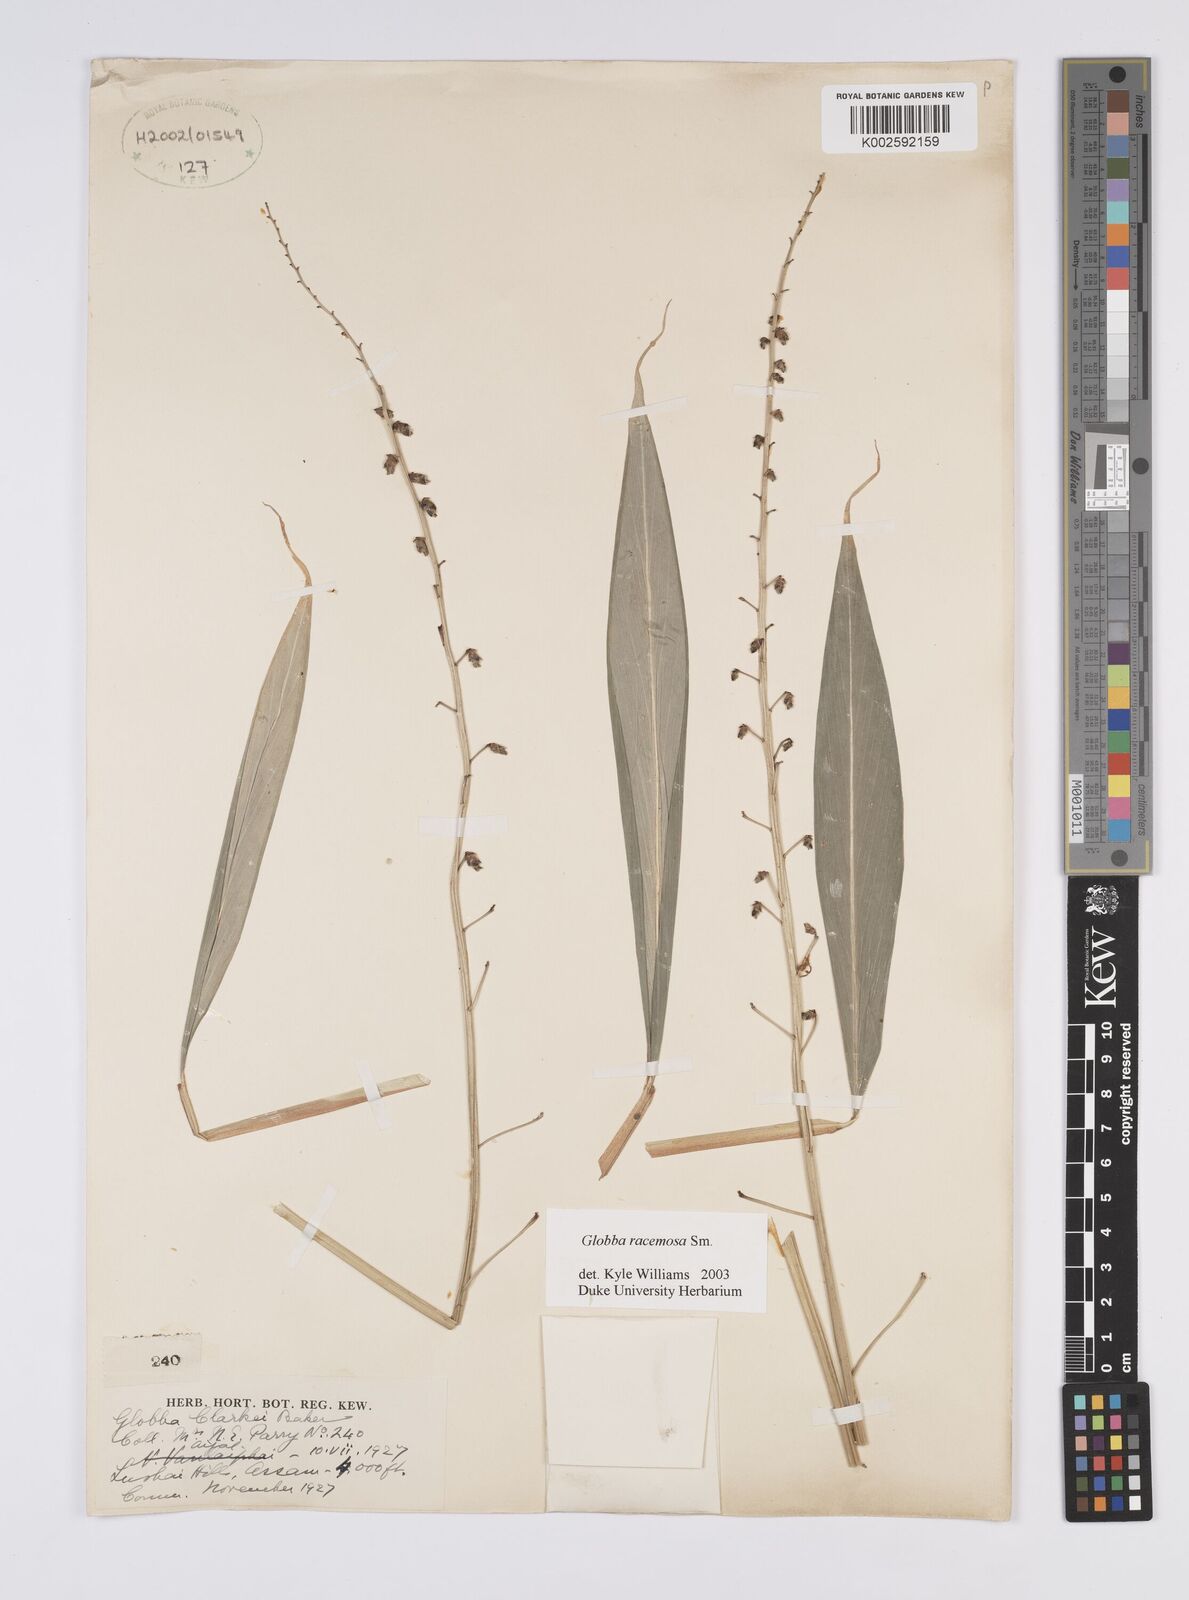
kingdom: Plantae
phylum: Tracheophyta
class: Liliopsida
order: Zingiberales
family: Zingiberaceae
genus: Globba
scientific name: Globba racemosa
